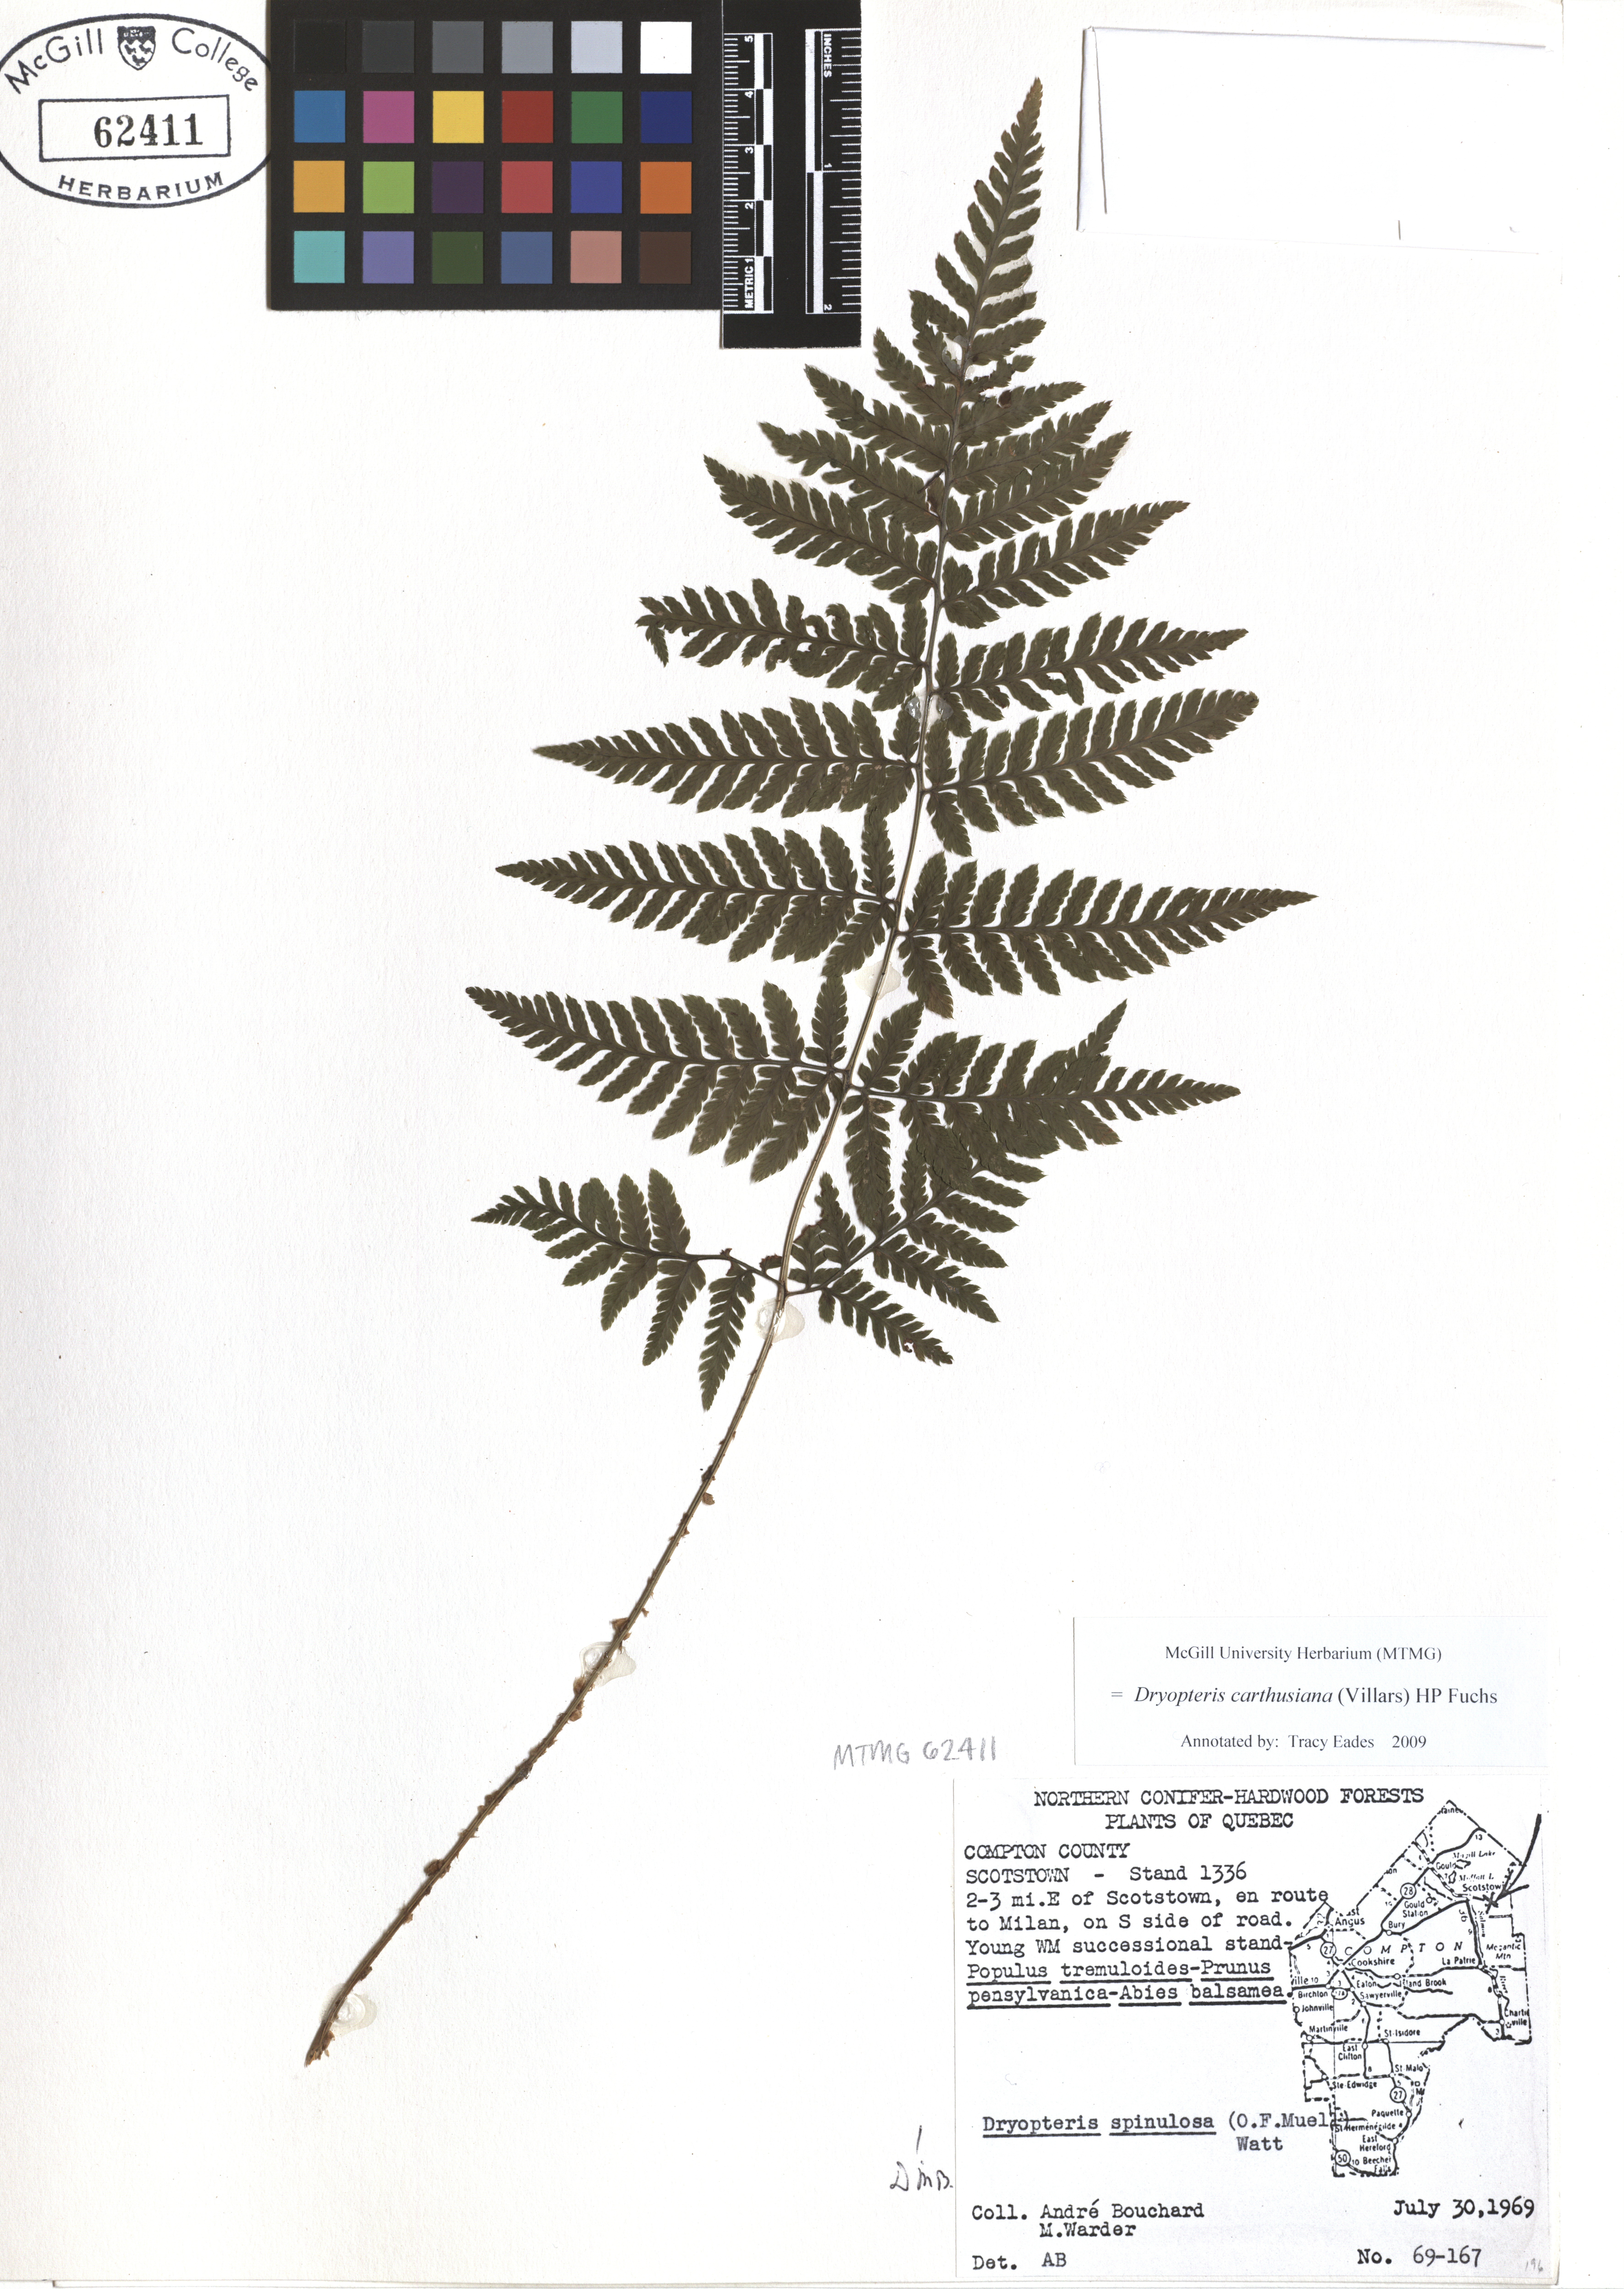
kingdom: Plantae
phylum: Tracheophyta
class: Polypodiopsida
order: Polypodiales
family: Dryopteridaceae
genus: Dryopteris
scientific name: Dryopteris carthusiana
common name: Narrow buckler-fern
